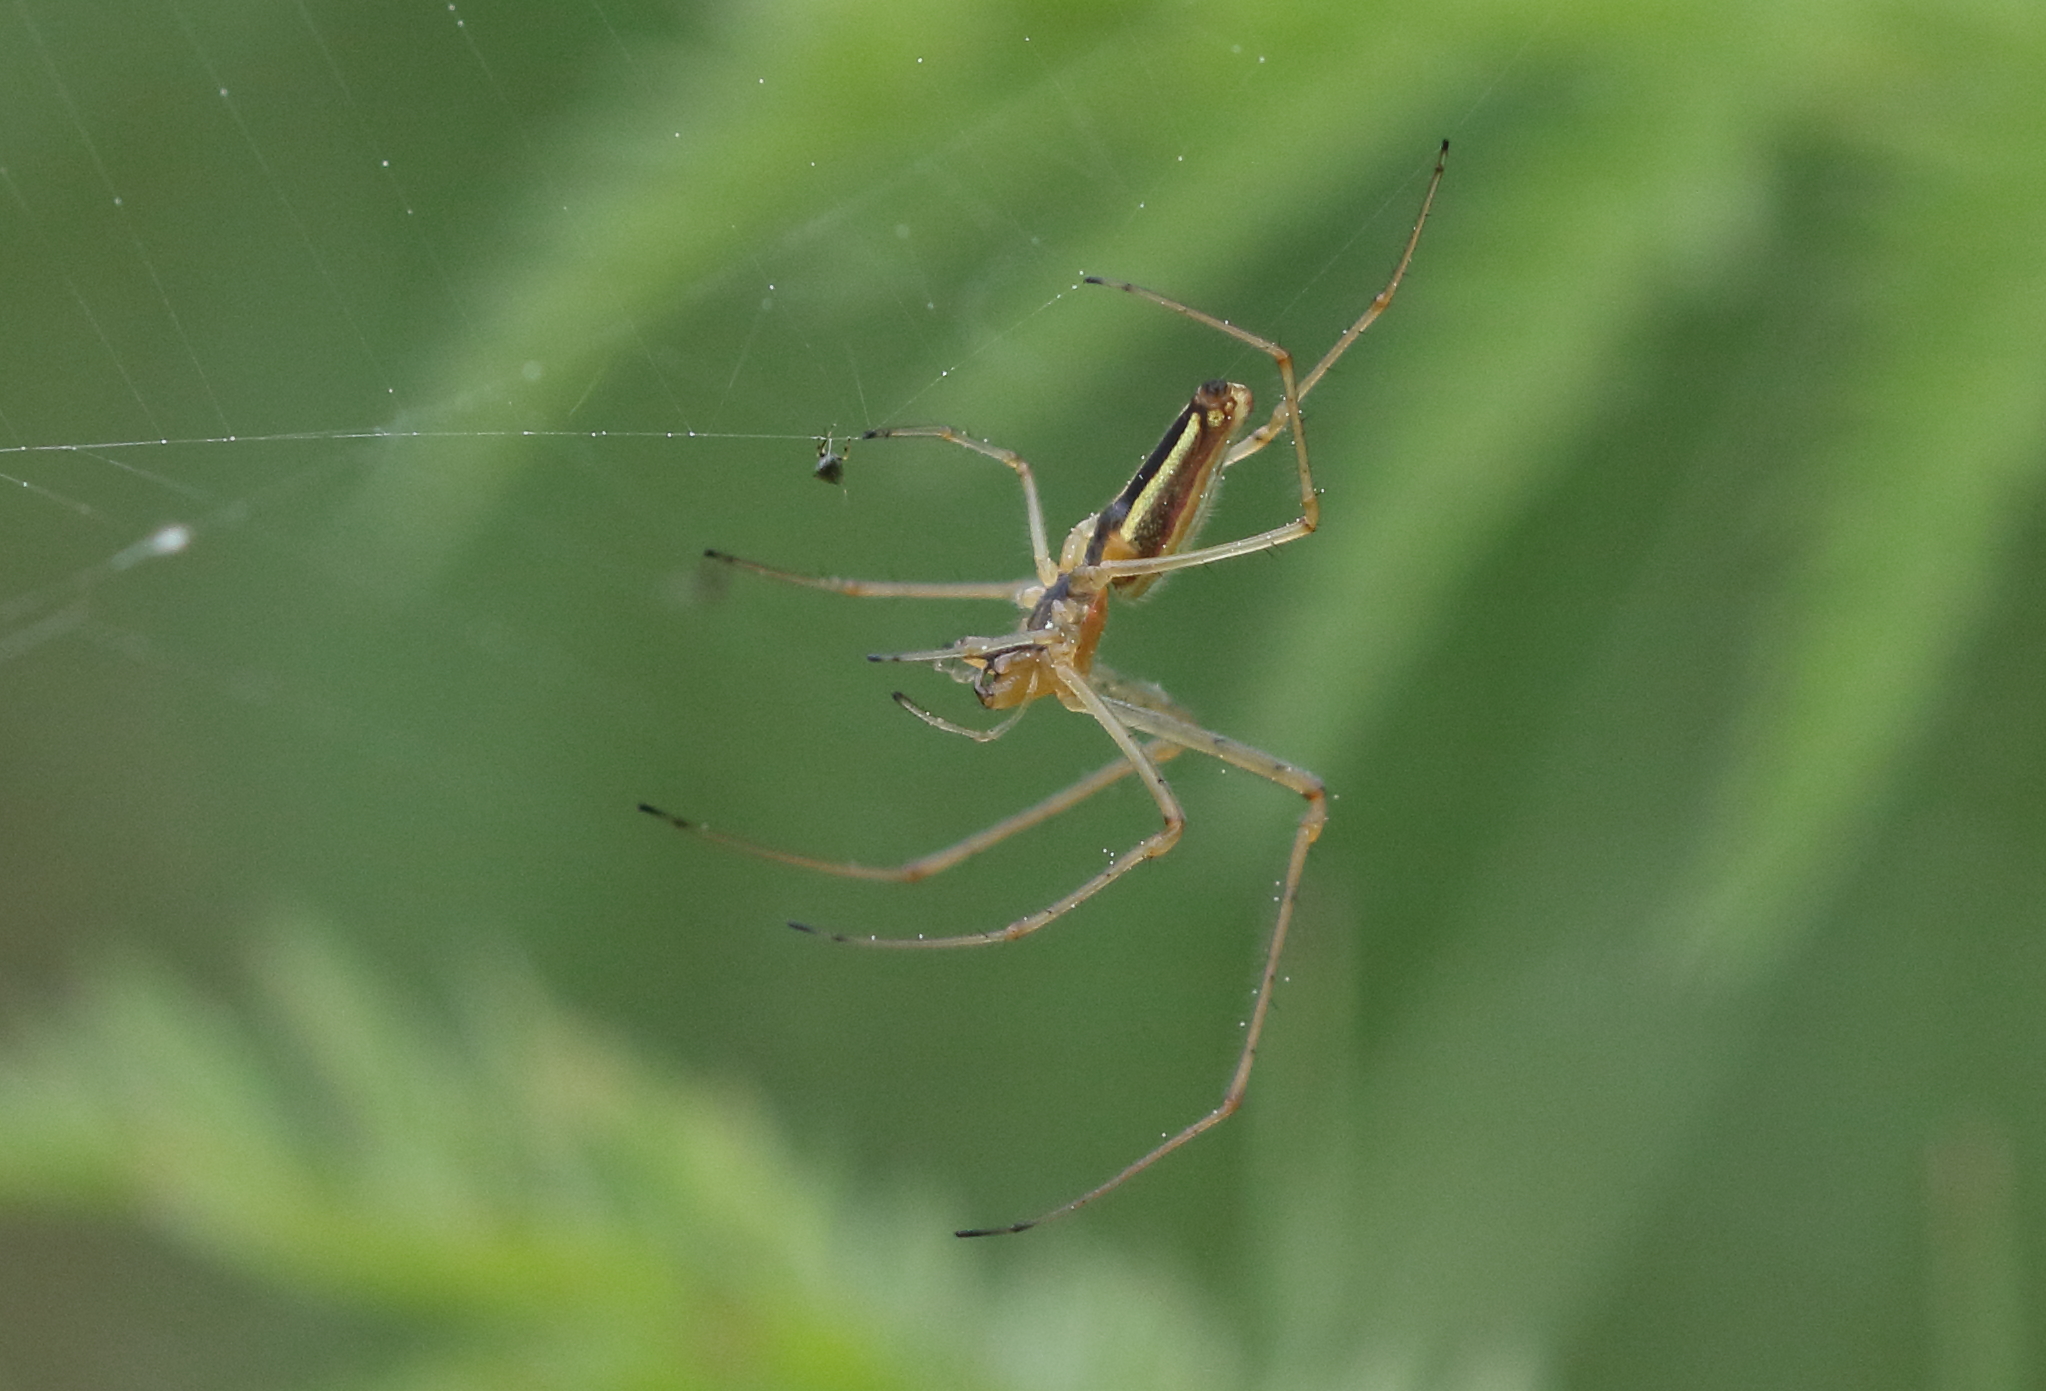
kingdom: Animalia
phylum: Arthropoda
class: Arachnida
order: Araneae
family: Tetragnathidae
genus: Tetragnatha
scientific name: Tetragnatha extensa
